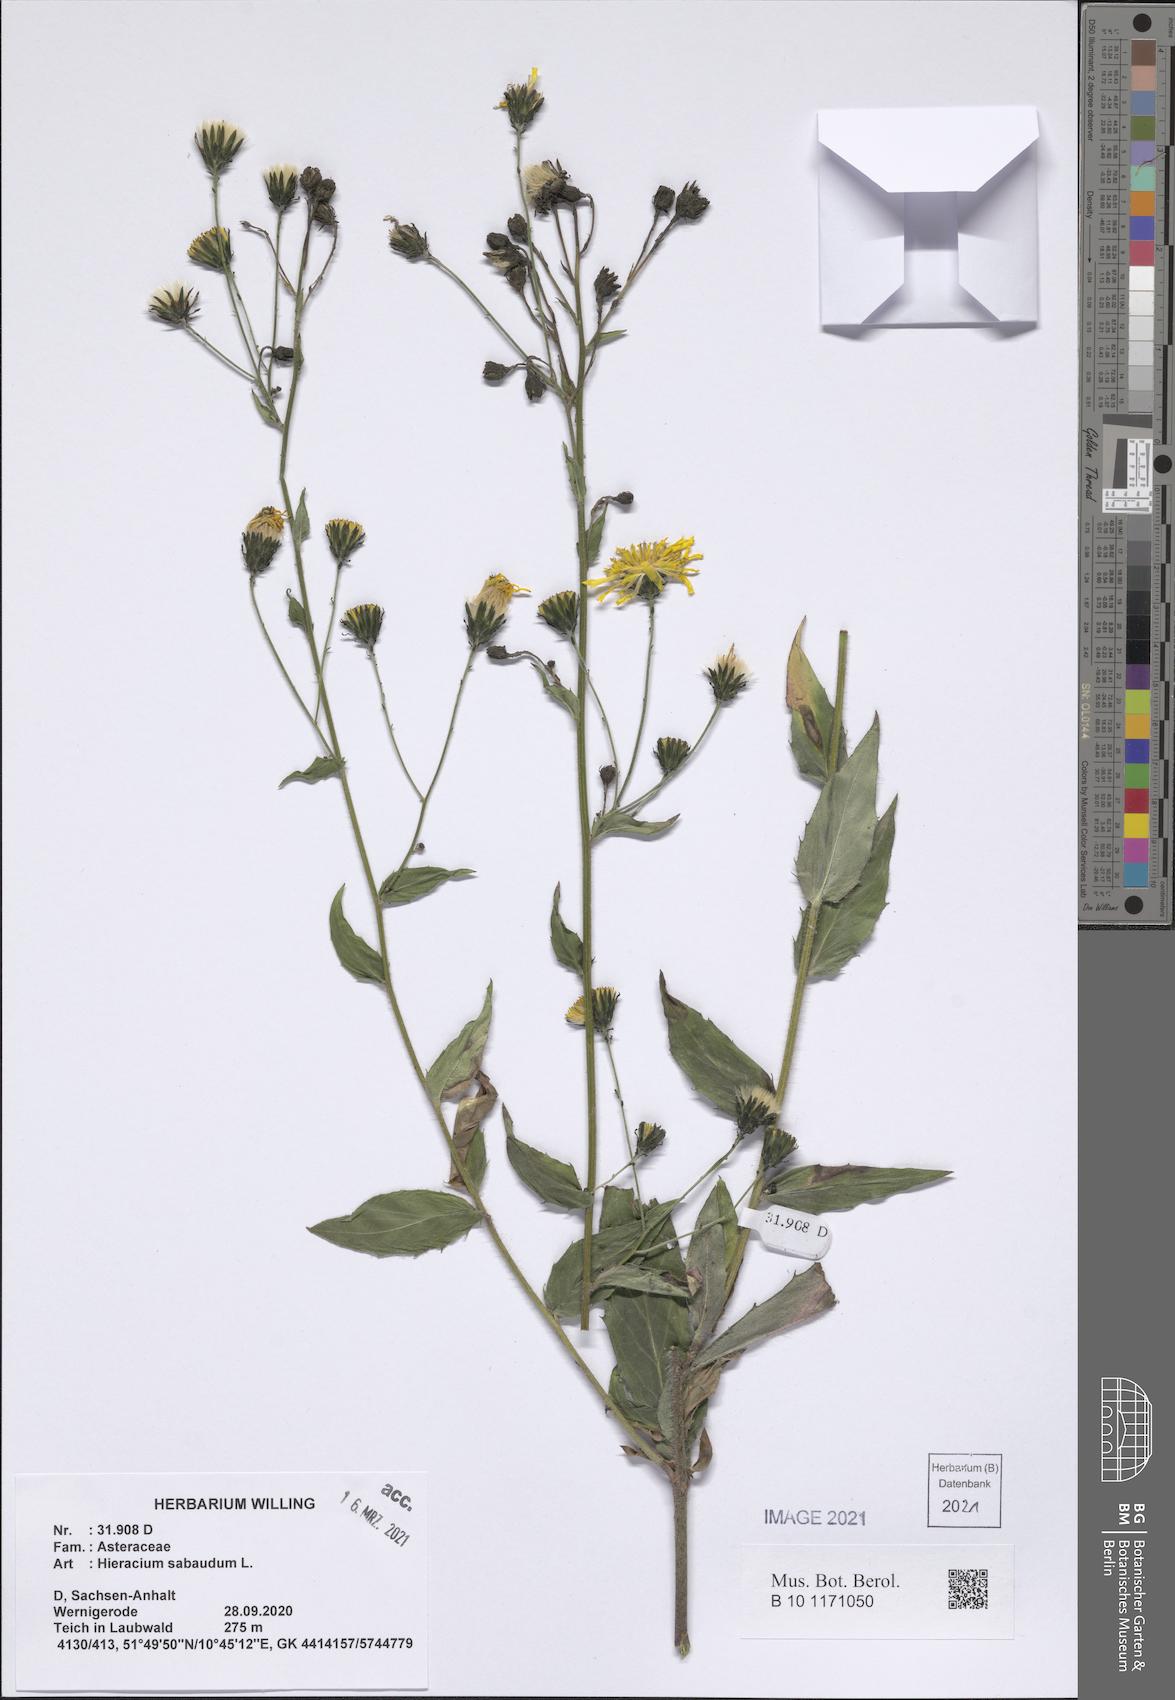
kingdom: Plantae
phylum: Tracheophyta
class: Magnoliopsida
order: Asterales
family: Asteraceae
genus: Hieracium
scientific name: Hieracium sabaudum
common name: New england hawkweed
